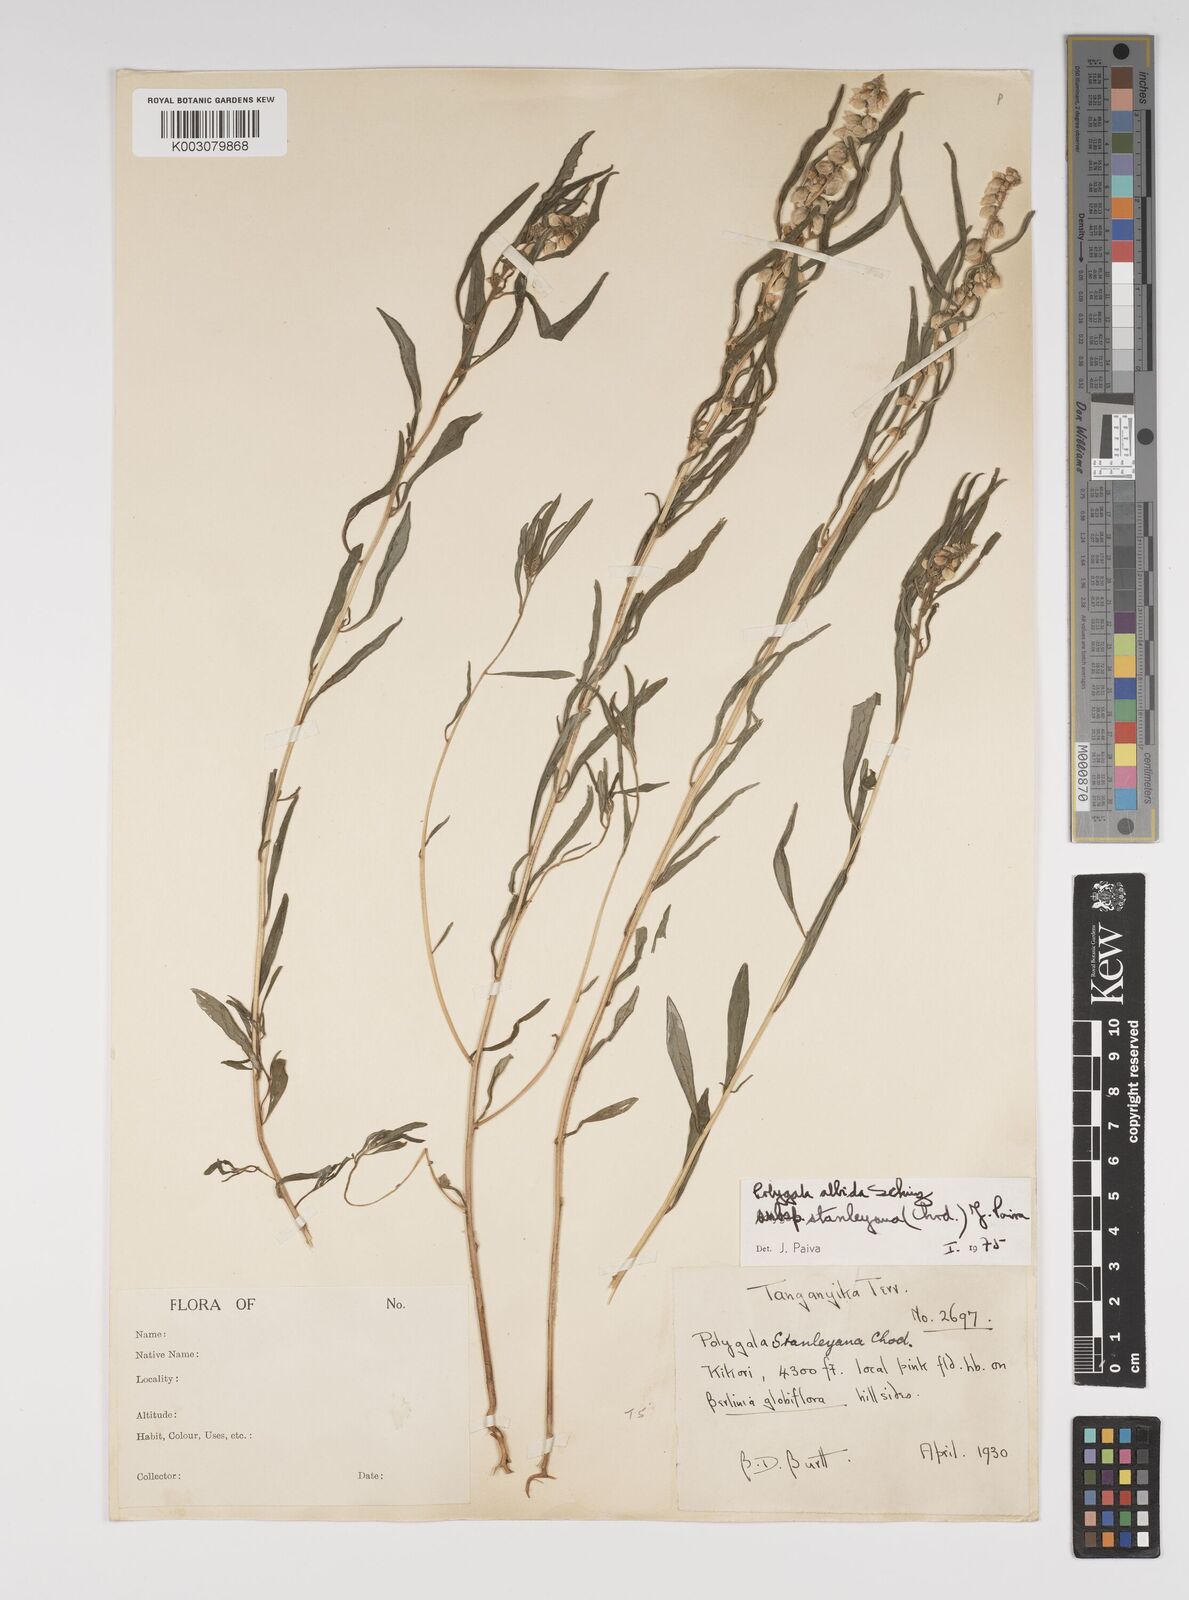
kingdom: Plantae
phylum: Tracheophyta
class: Magnoliopsida
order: Fabales
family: Polygalaceae
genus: Polygala
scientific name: Polygala albida
